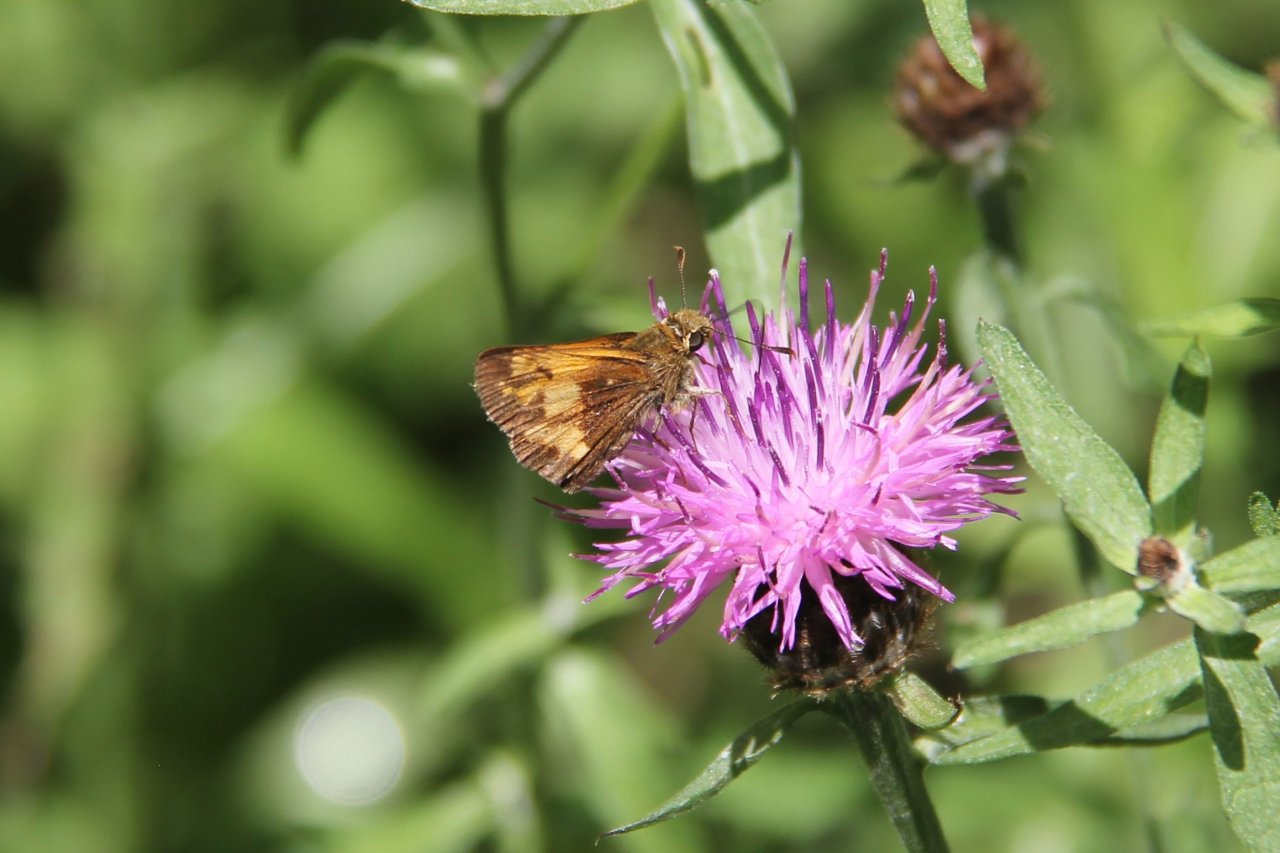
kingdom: Animalia
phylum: Arthropoda
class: Insecta
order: Lepidoptera
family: Hesperiidae
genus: Lon
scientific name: Lon hobomok
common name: Hobomok Skipper
